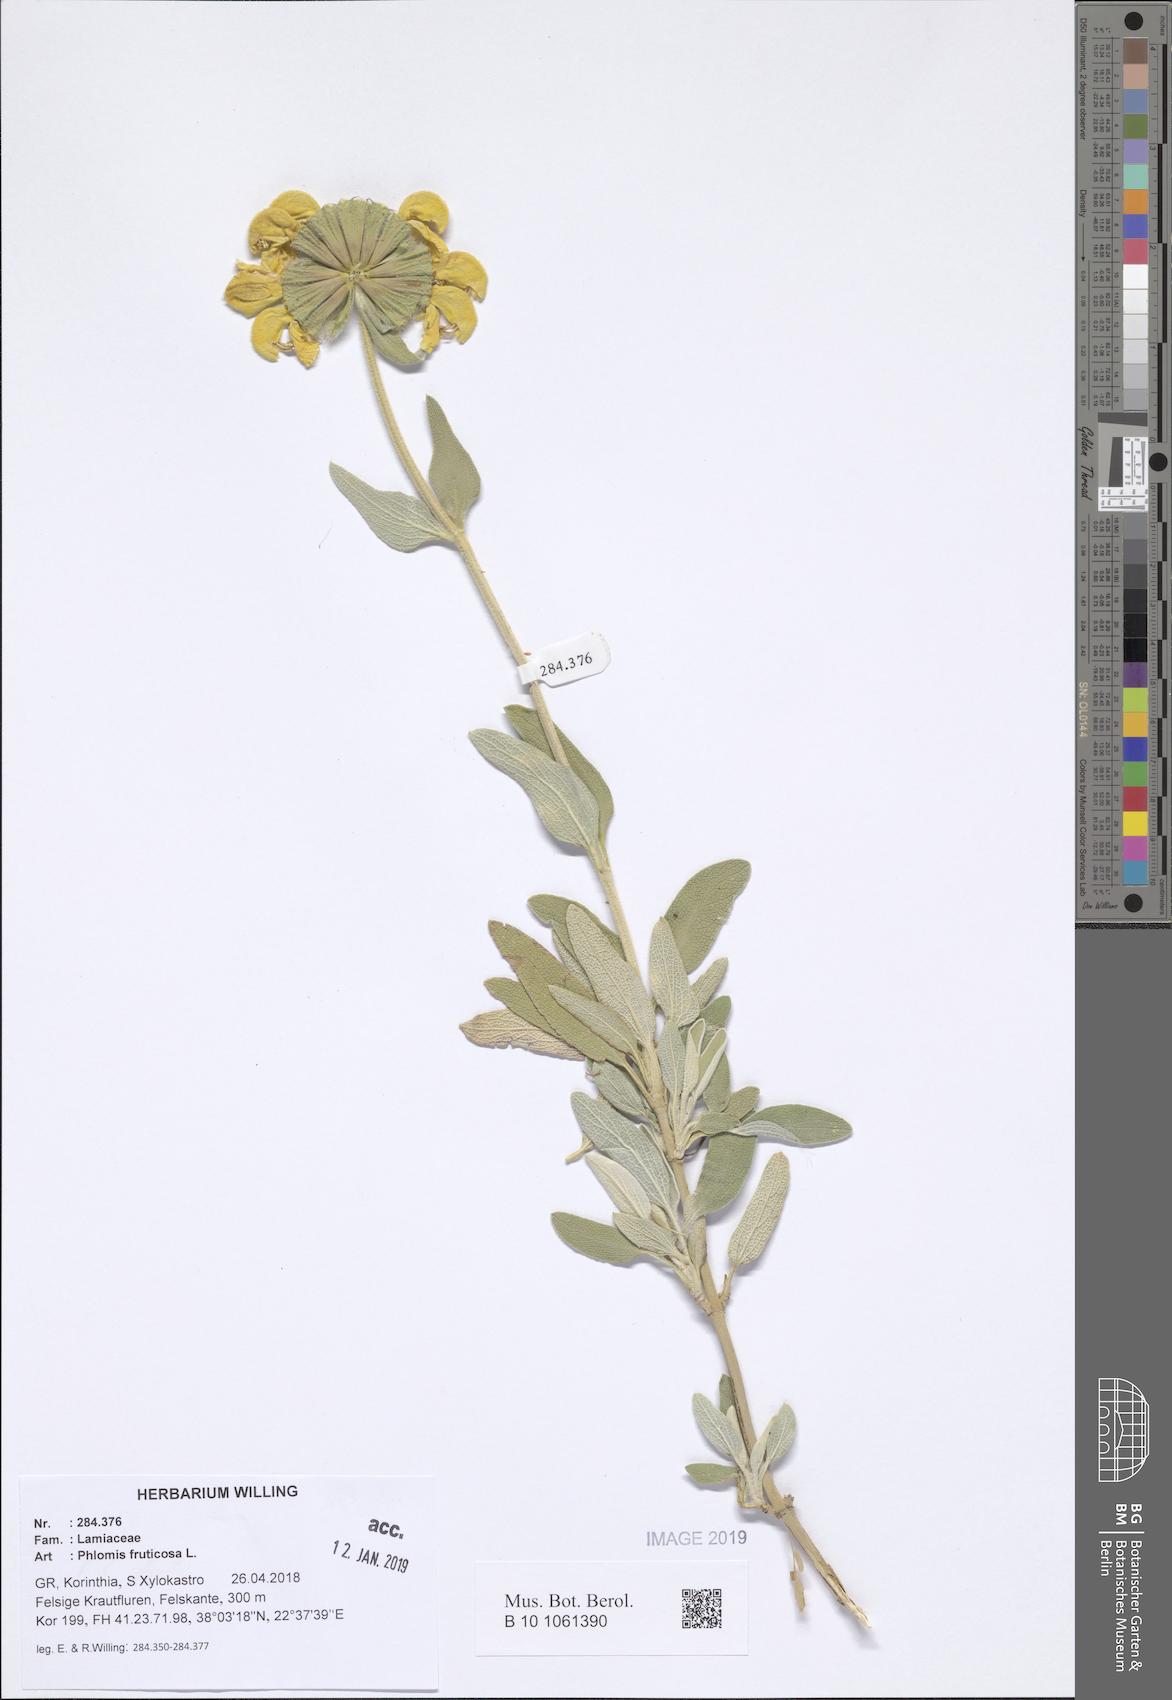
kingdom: Plantae
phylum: Tracheophyta
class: Magnoliopsida
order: Lamiales
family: Lamiaceae
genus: Phlomis
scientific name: Phlomis fruticosa
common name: Jerusalem sage
